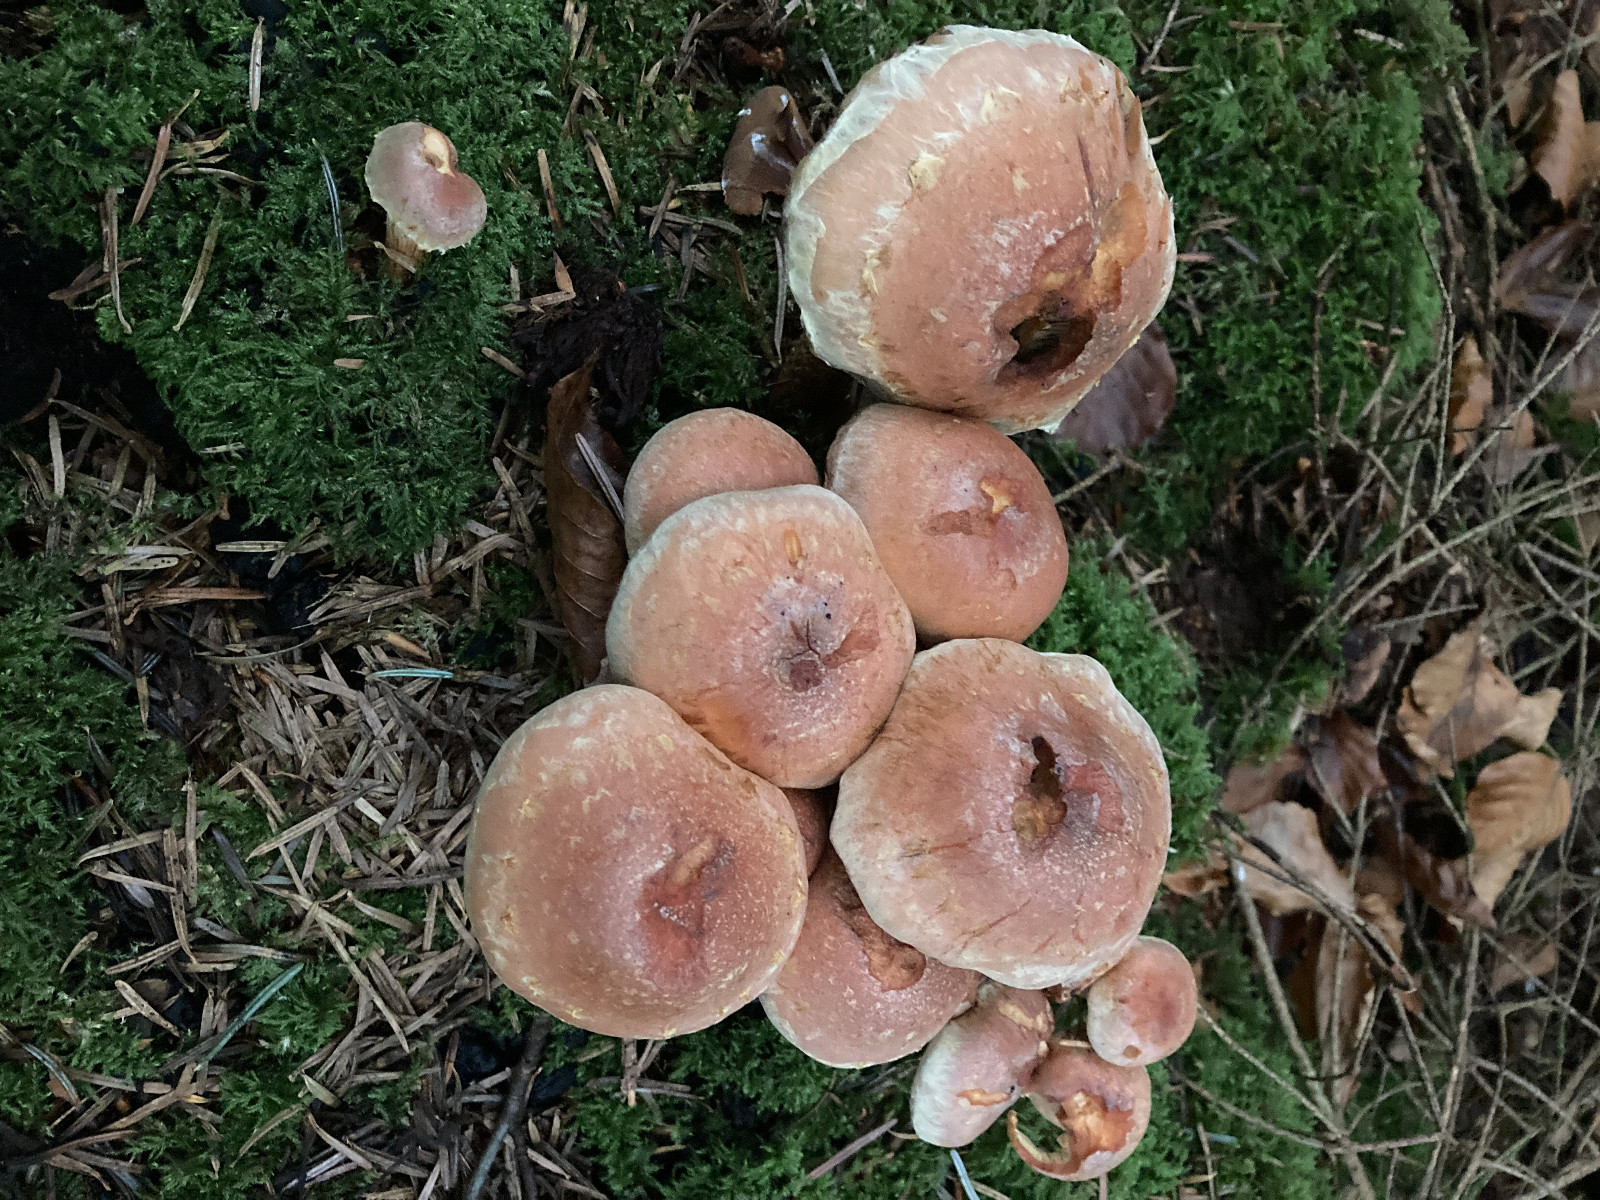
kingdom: Fungi
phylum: Basidiomycota
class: Agaricomycetes
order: Agaricales
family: Strophariaceae
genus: Hypholoma
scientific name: Hypholoma lateritium
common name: teglrød svovlhat
